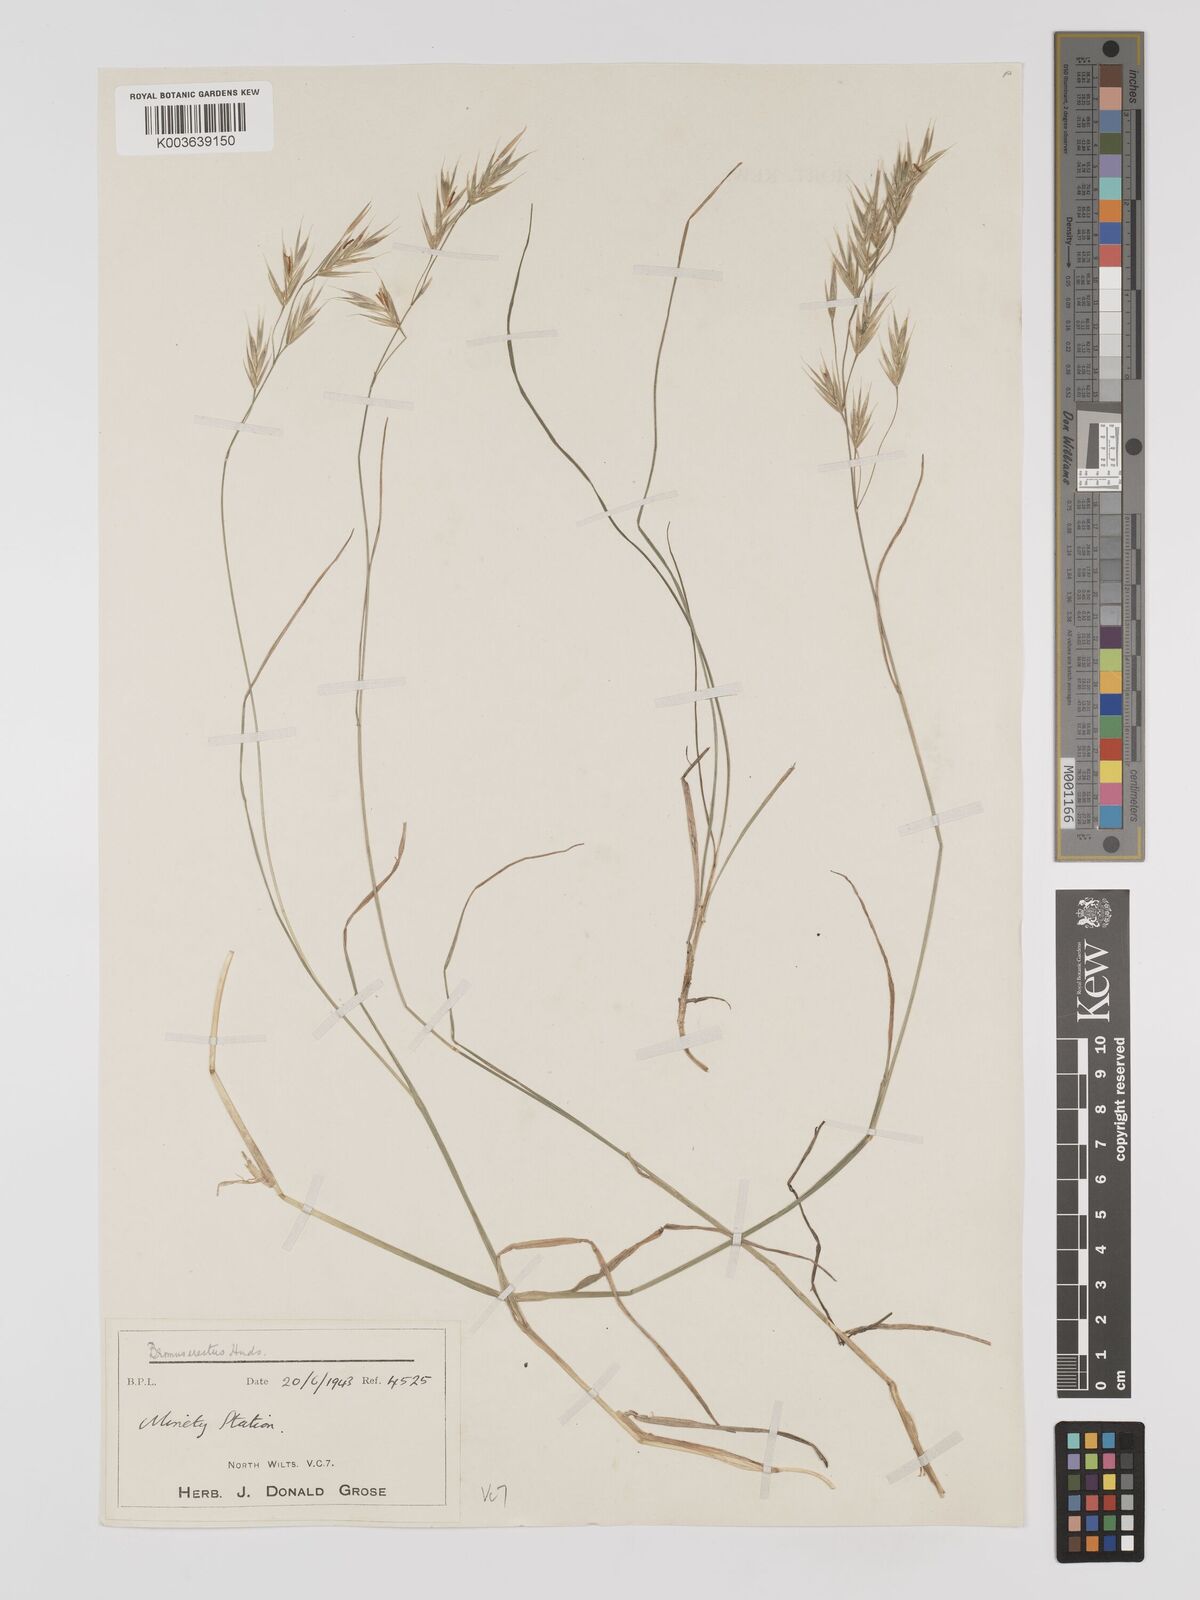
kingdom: Plantae
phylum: Tracheophyta
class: Liliopsida
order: Poales
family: Poaceae
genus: Bromus
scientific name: Bromus erectus
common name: Erect brome
